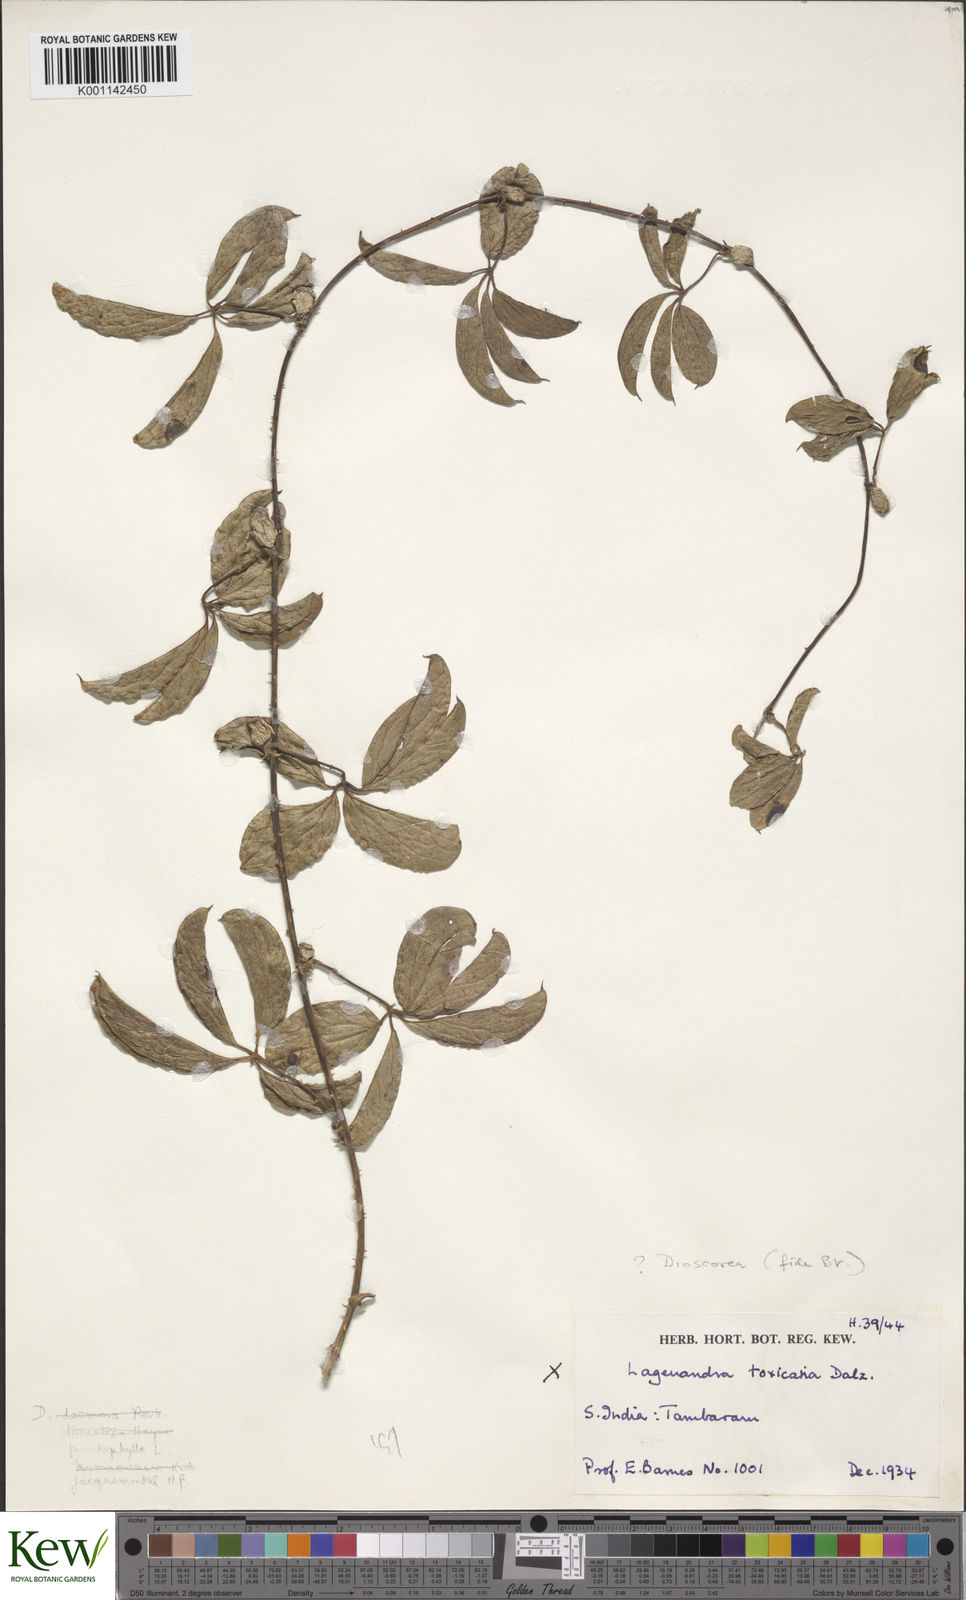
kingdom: Plantae
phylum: Tracheophyta
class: Liliopsida
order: Dioscoreales
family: Dioscoreaceae
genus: Dioscorea
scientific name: Dioscorea pentaphylla
